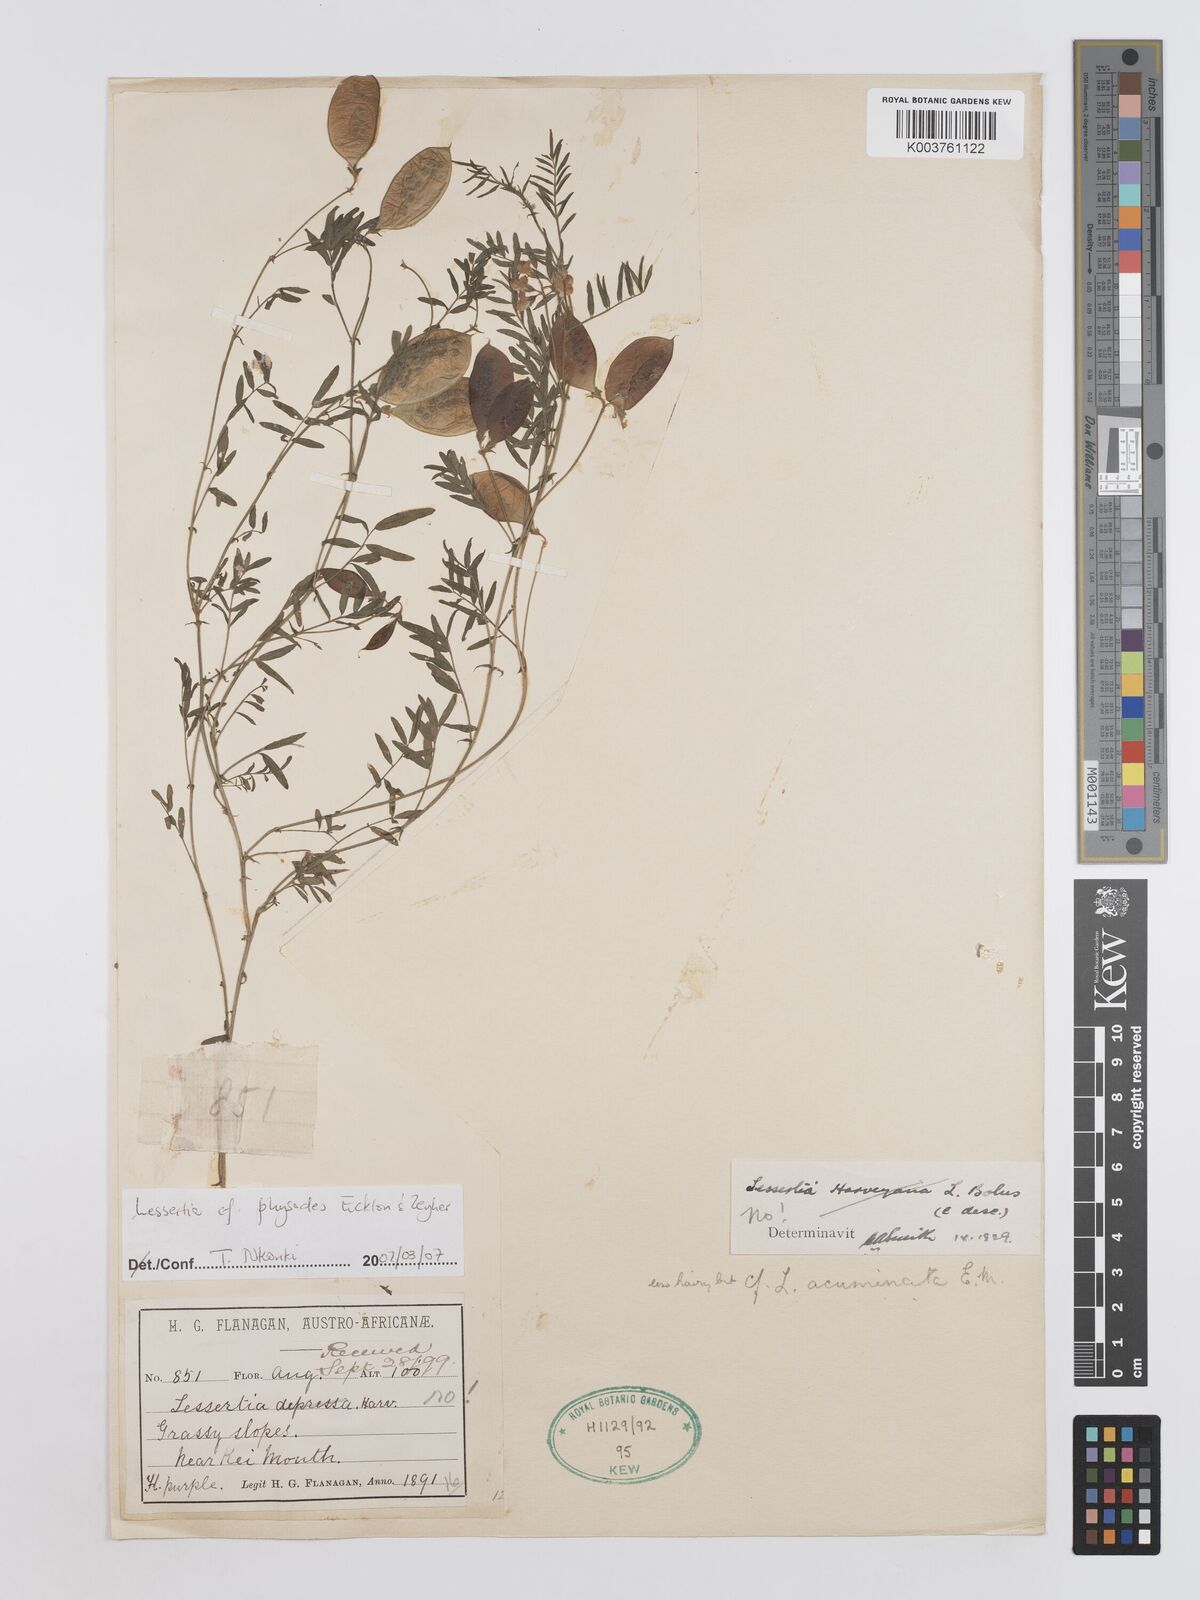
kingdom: Plantae
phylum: Tracheophyta
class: Magnoliopsida
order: Fabales
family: Fabaceae
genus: Lessertia
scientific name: Lessertia physodes
